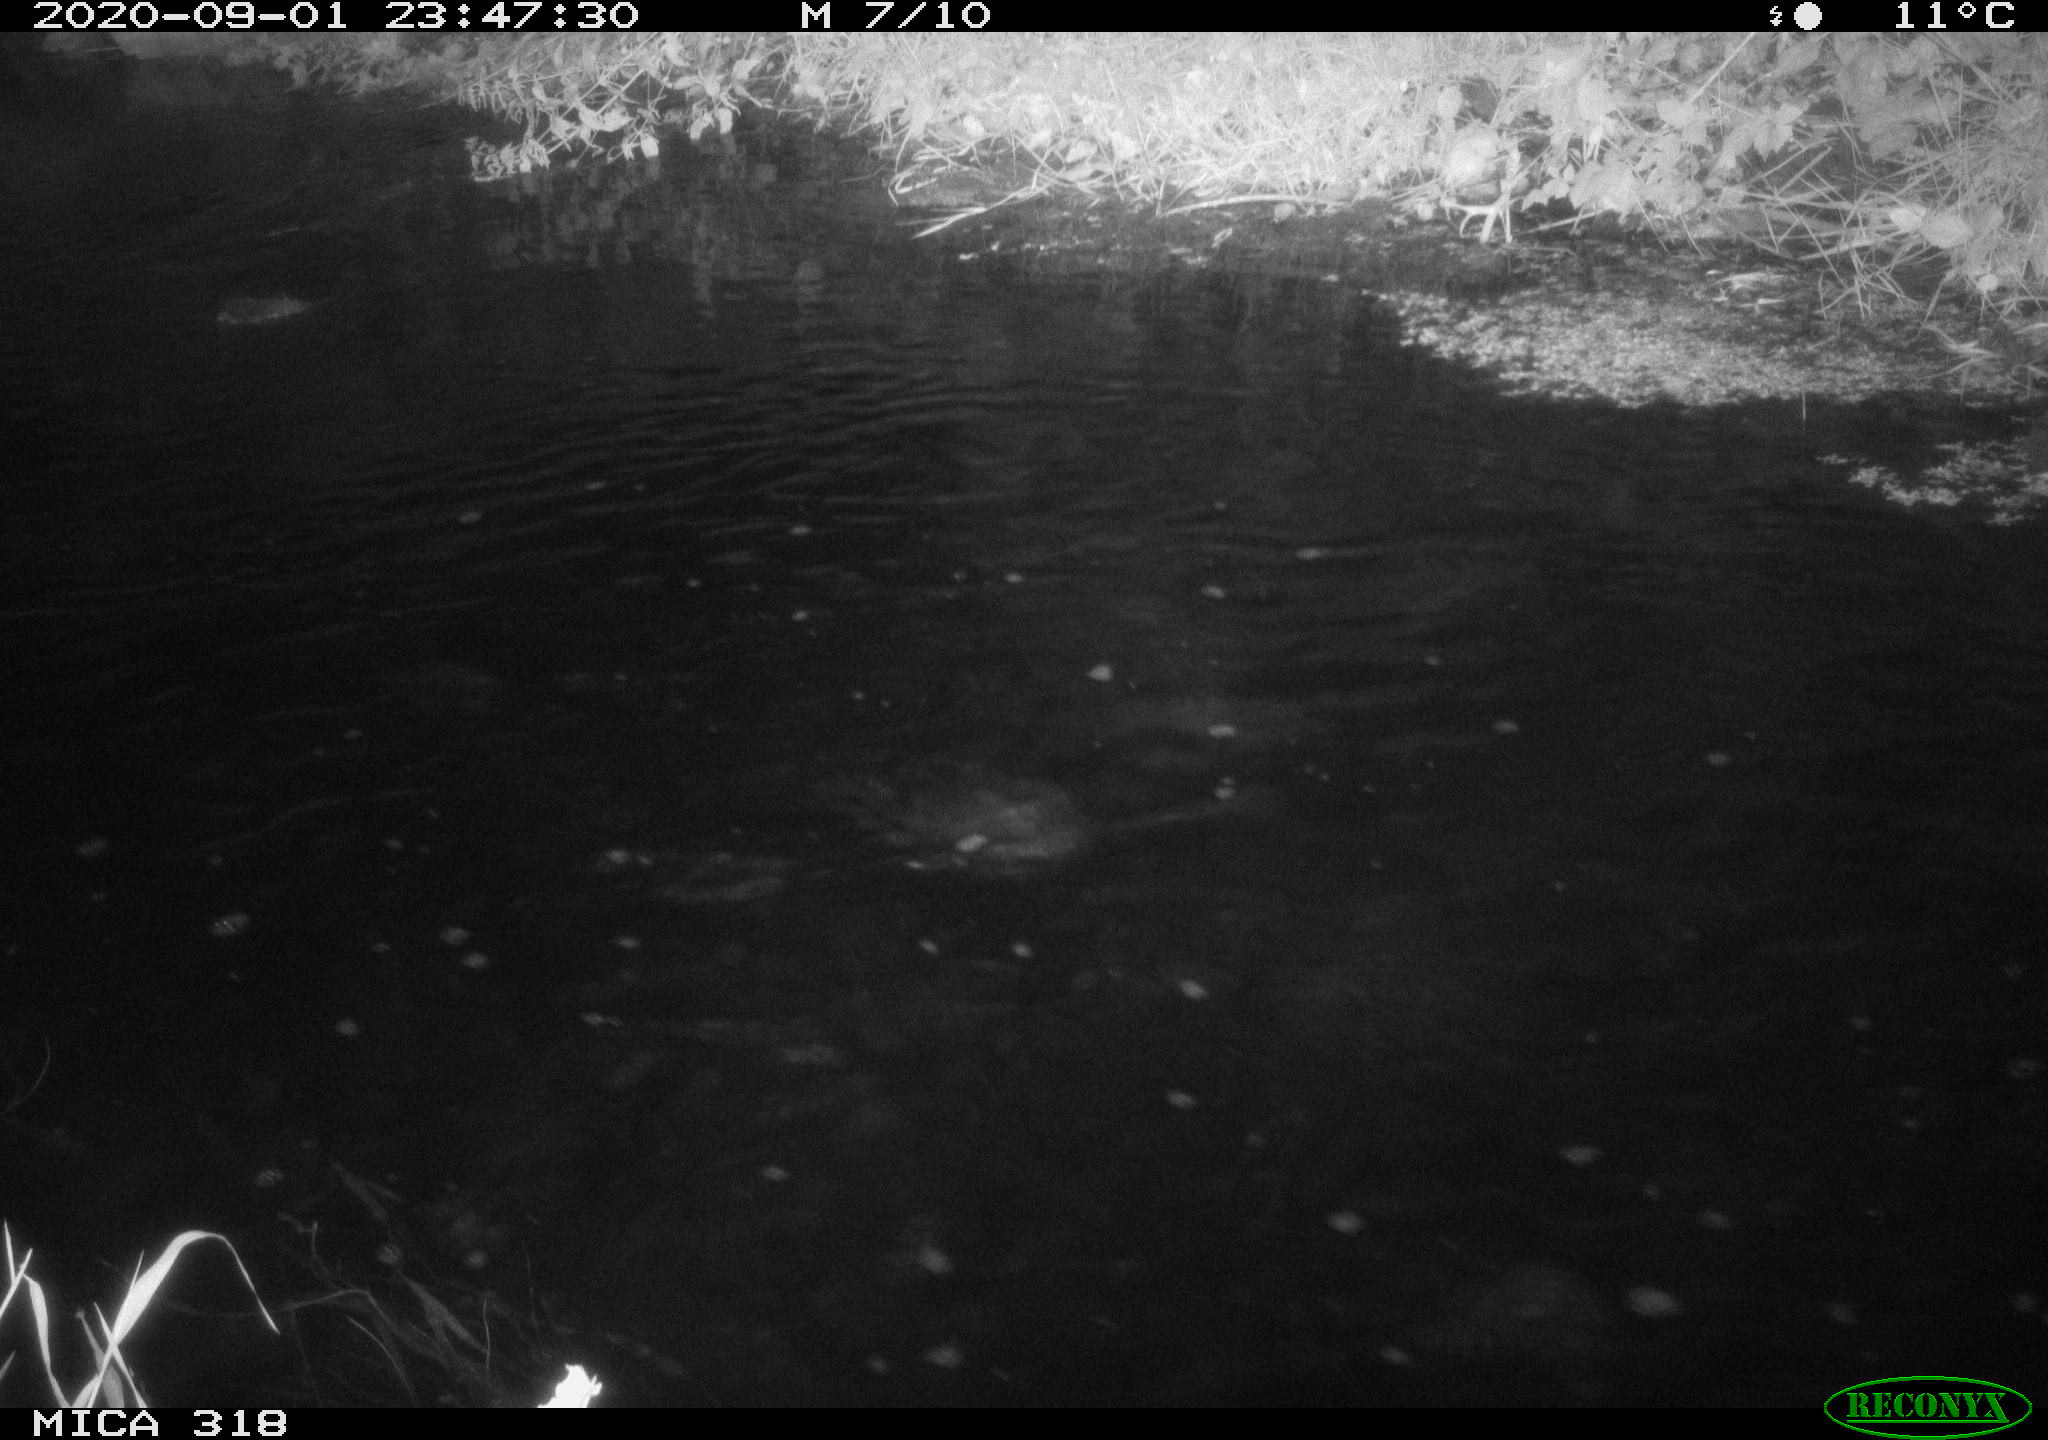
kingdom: Animalia
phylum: Chordata
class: Aves
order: Pelecaniformes
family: Ardeidae
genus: Ardea
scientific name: Ardea
